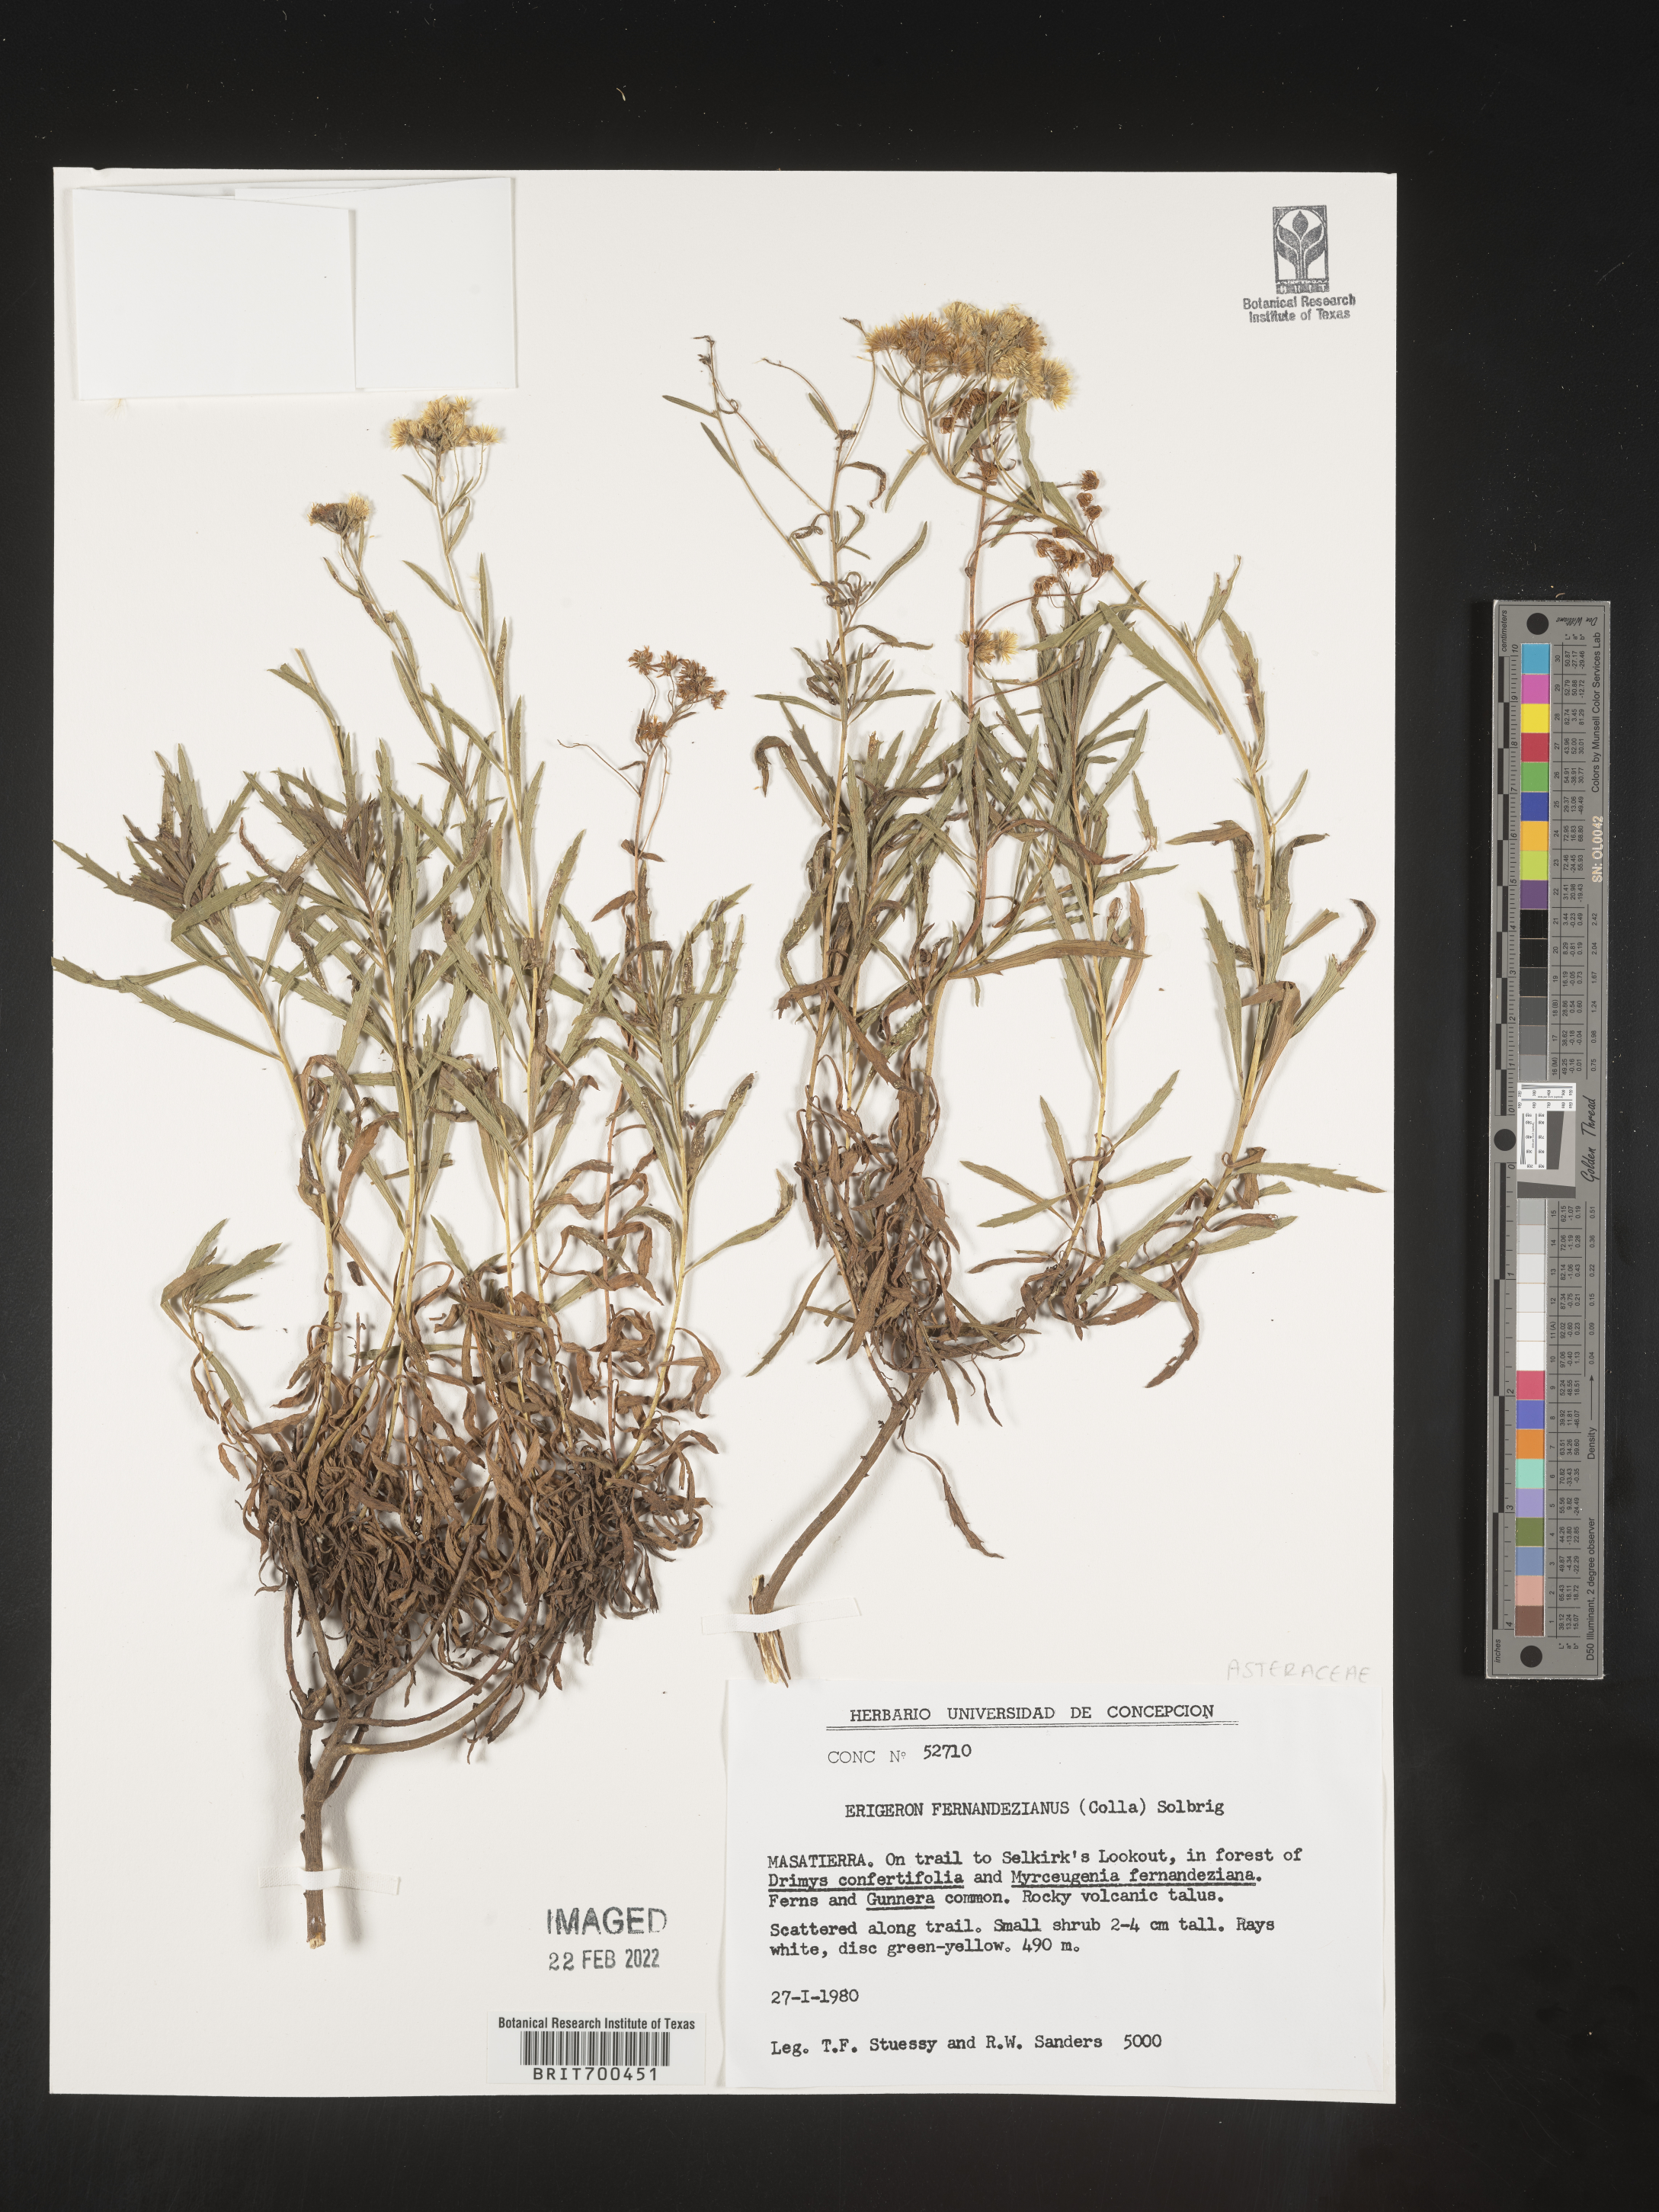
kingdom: Plantae
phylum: Tracheophyta
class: Magnoliopsida
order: Asterales
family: Asteraceae
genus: Erigeron
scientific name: Erigeron
